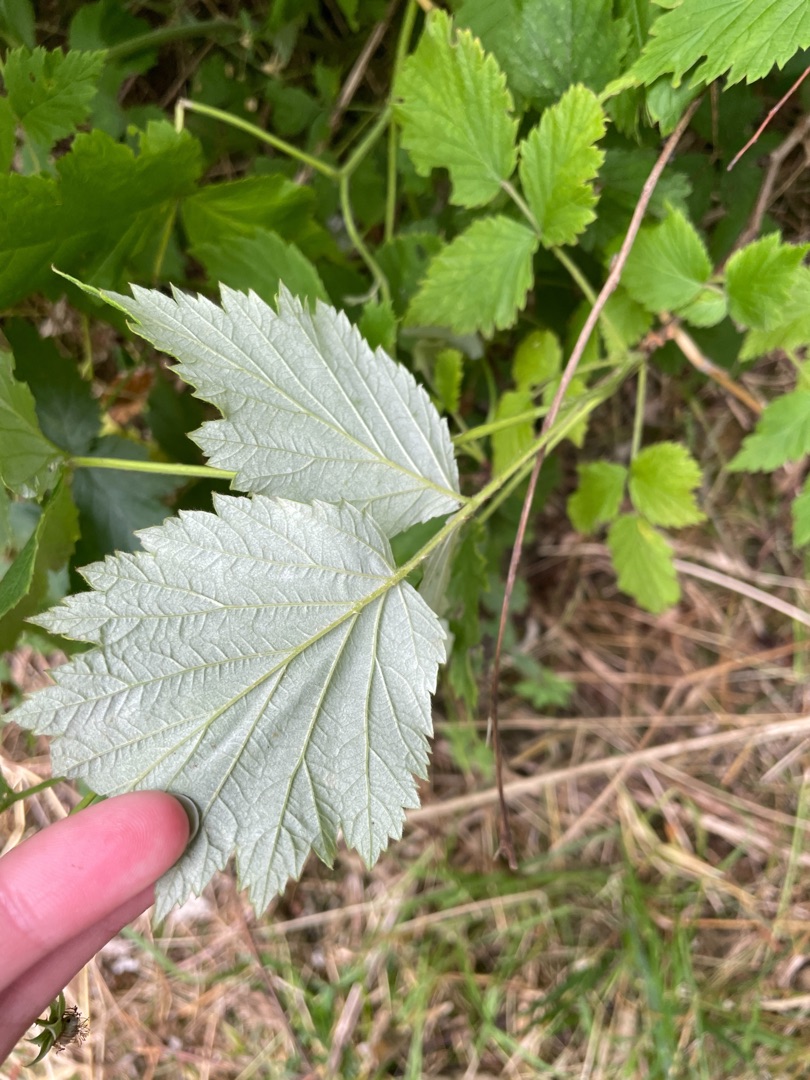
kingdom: Plantae
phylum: Tracheophyta
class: Magnoliopsida
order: Rosales
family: Rosaceae
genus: Rubus
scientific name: Rubus idaeus
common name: Hindbær
